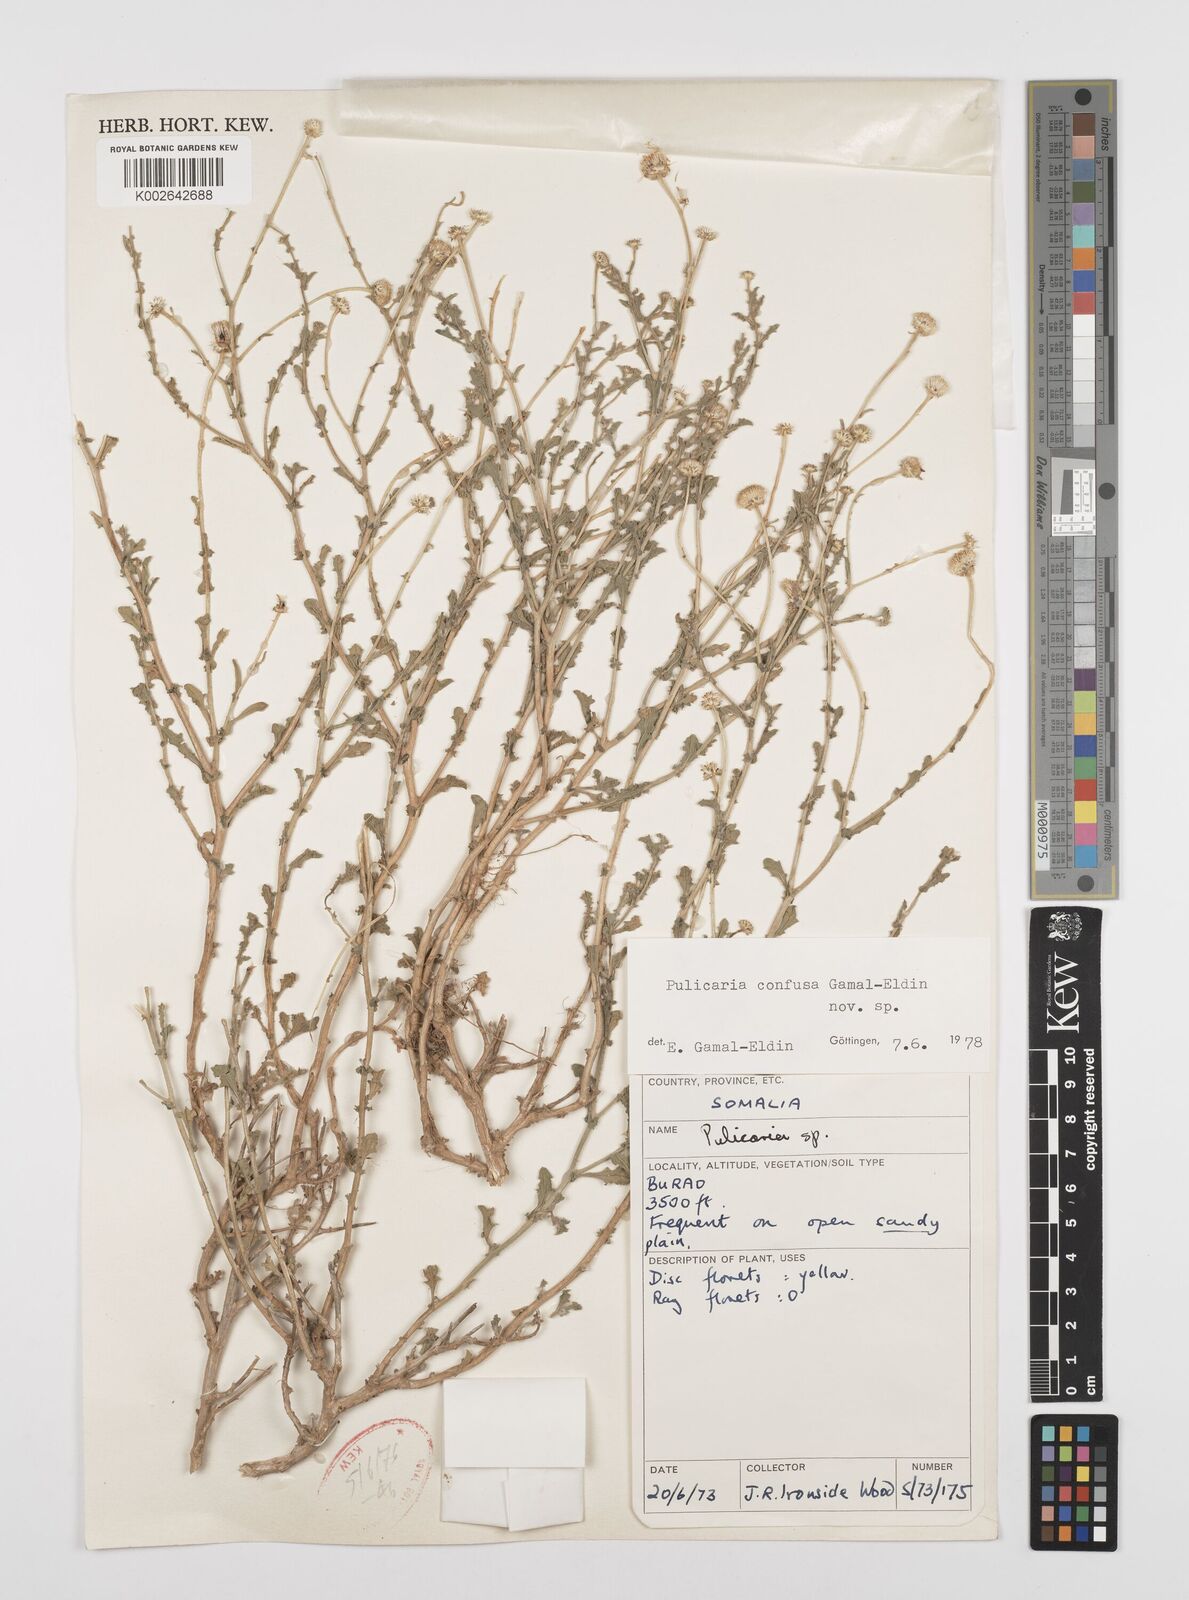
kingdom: Plantae
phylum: Tracheophyta
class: Magnoliopsida
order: Asterales
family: Asteraceae
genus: Pulicaria
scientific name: Pulicaria confusa
